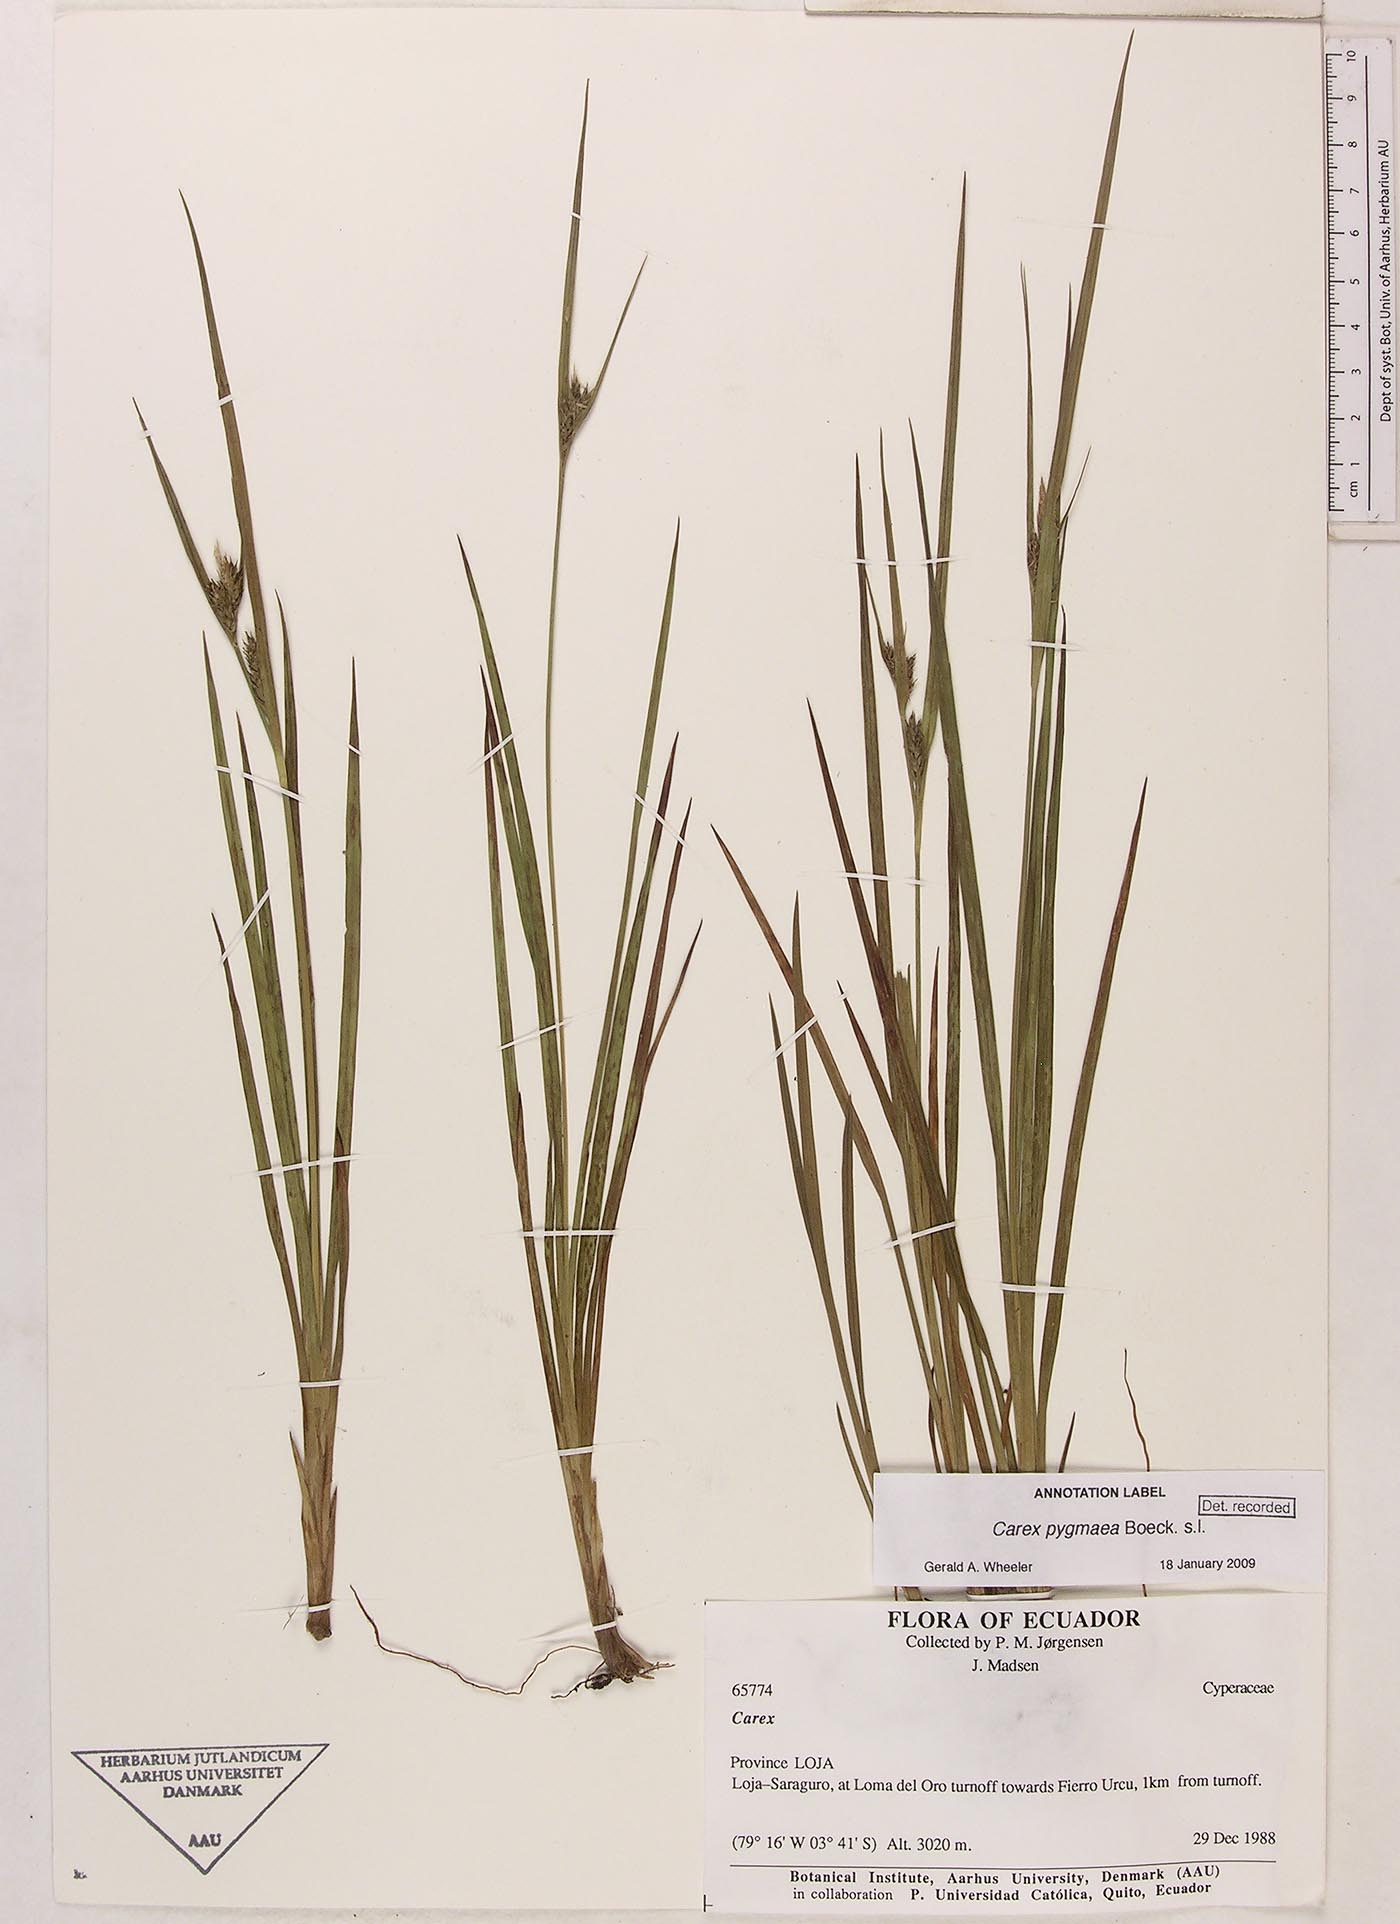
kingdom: Plantae
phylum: Tracheophyta
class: Liliopsida
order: Poales
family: Cyperaceae
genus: Carex
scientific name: Carex pygmaea
